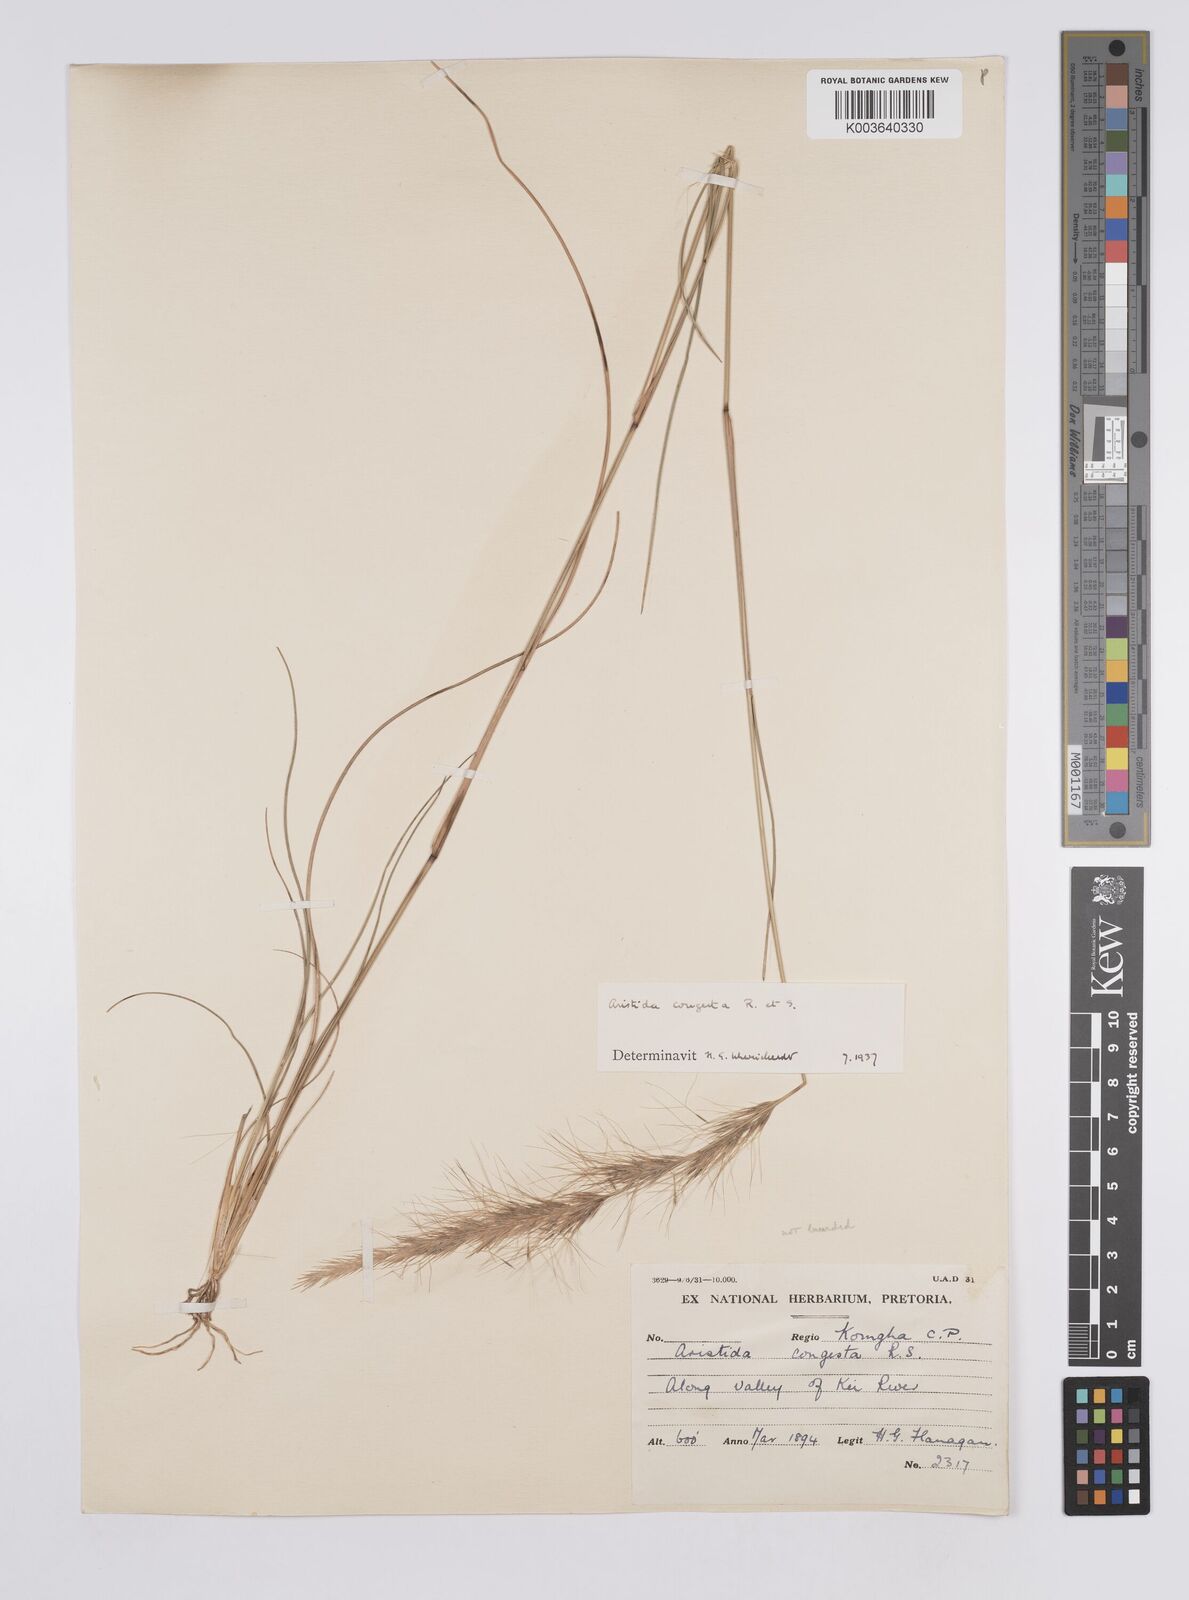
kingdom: Plantae
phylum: Tracheophyta
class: Liliopsida
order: Poales
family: Poaceae
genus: Aristida
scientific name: Aristida congesta
